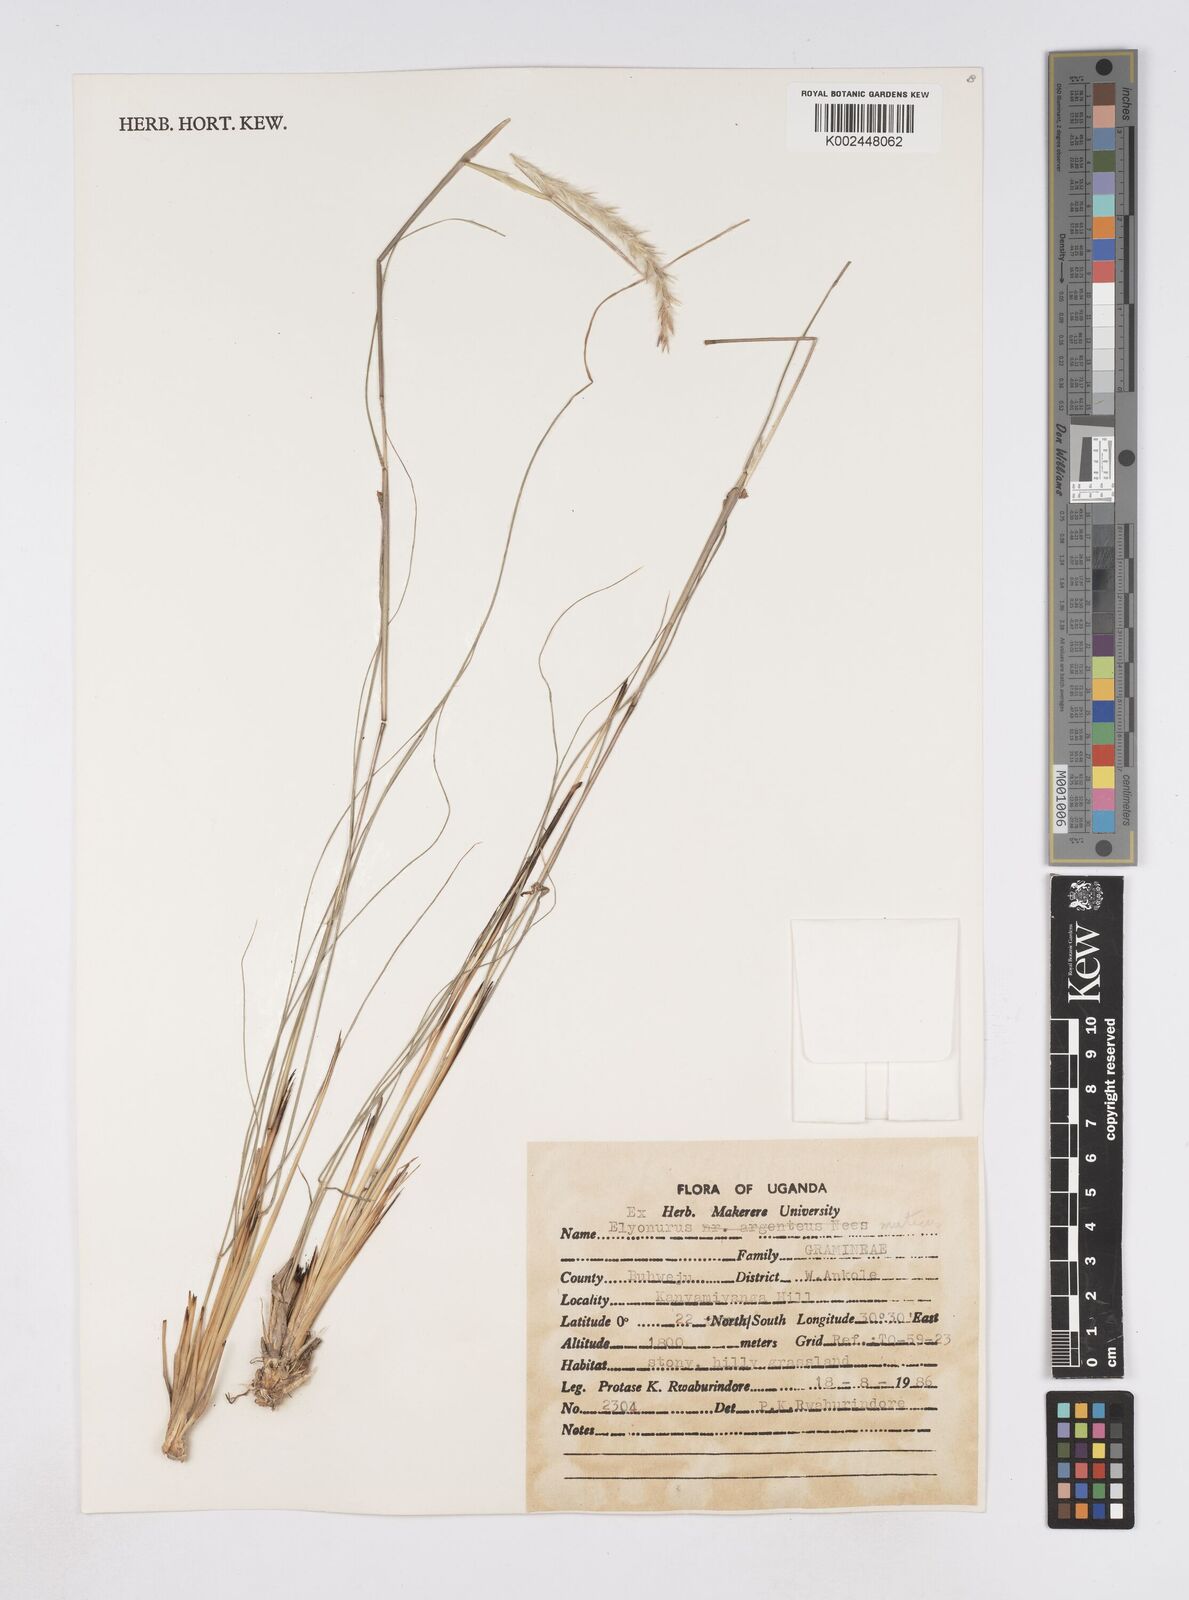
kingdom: Plantae
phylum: Tracheophyta
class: Liliopsida
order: Poales
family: Poaceae
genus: Elionurus
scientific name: Elionurus muticus
